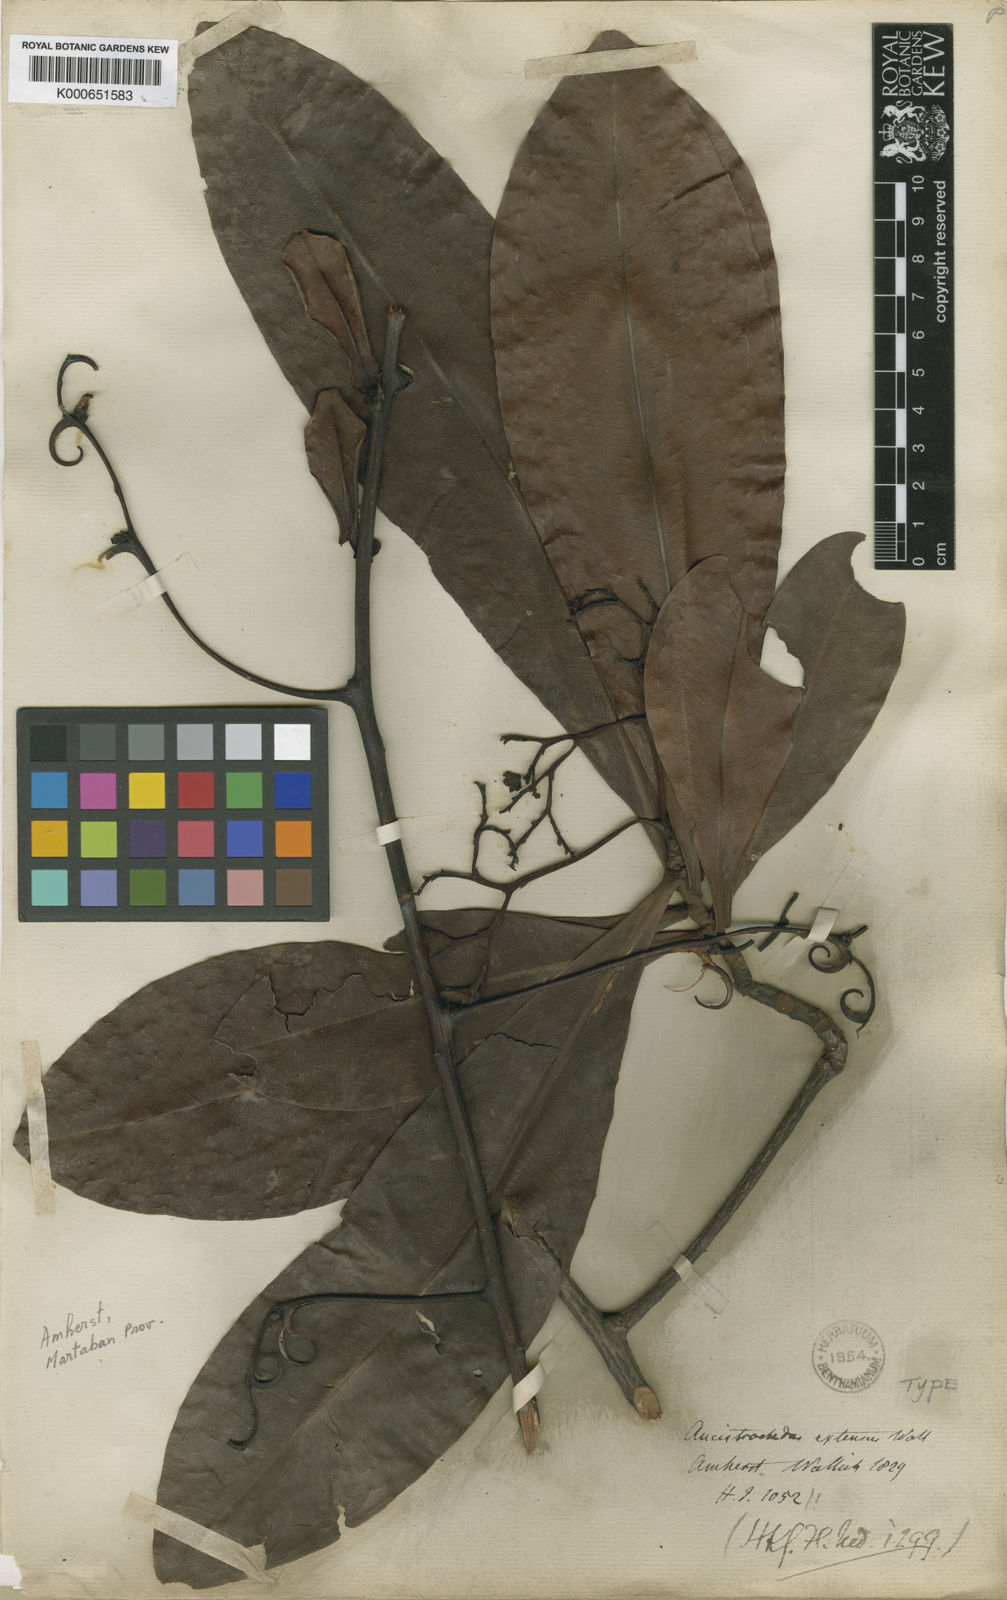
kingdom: Plantae
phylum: Tracheophyta
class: Magnoliopsida
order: Caryophyllales
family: Ancistrocladaceae
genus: Ancistrocladus
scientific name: Ancistrocladus tectorius
